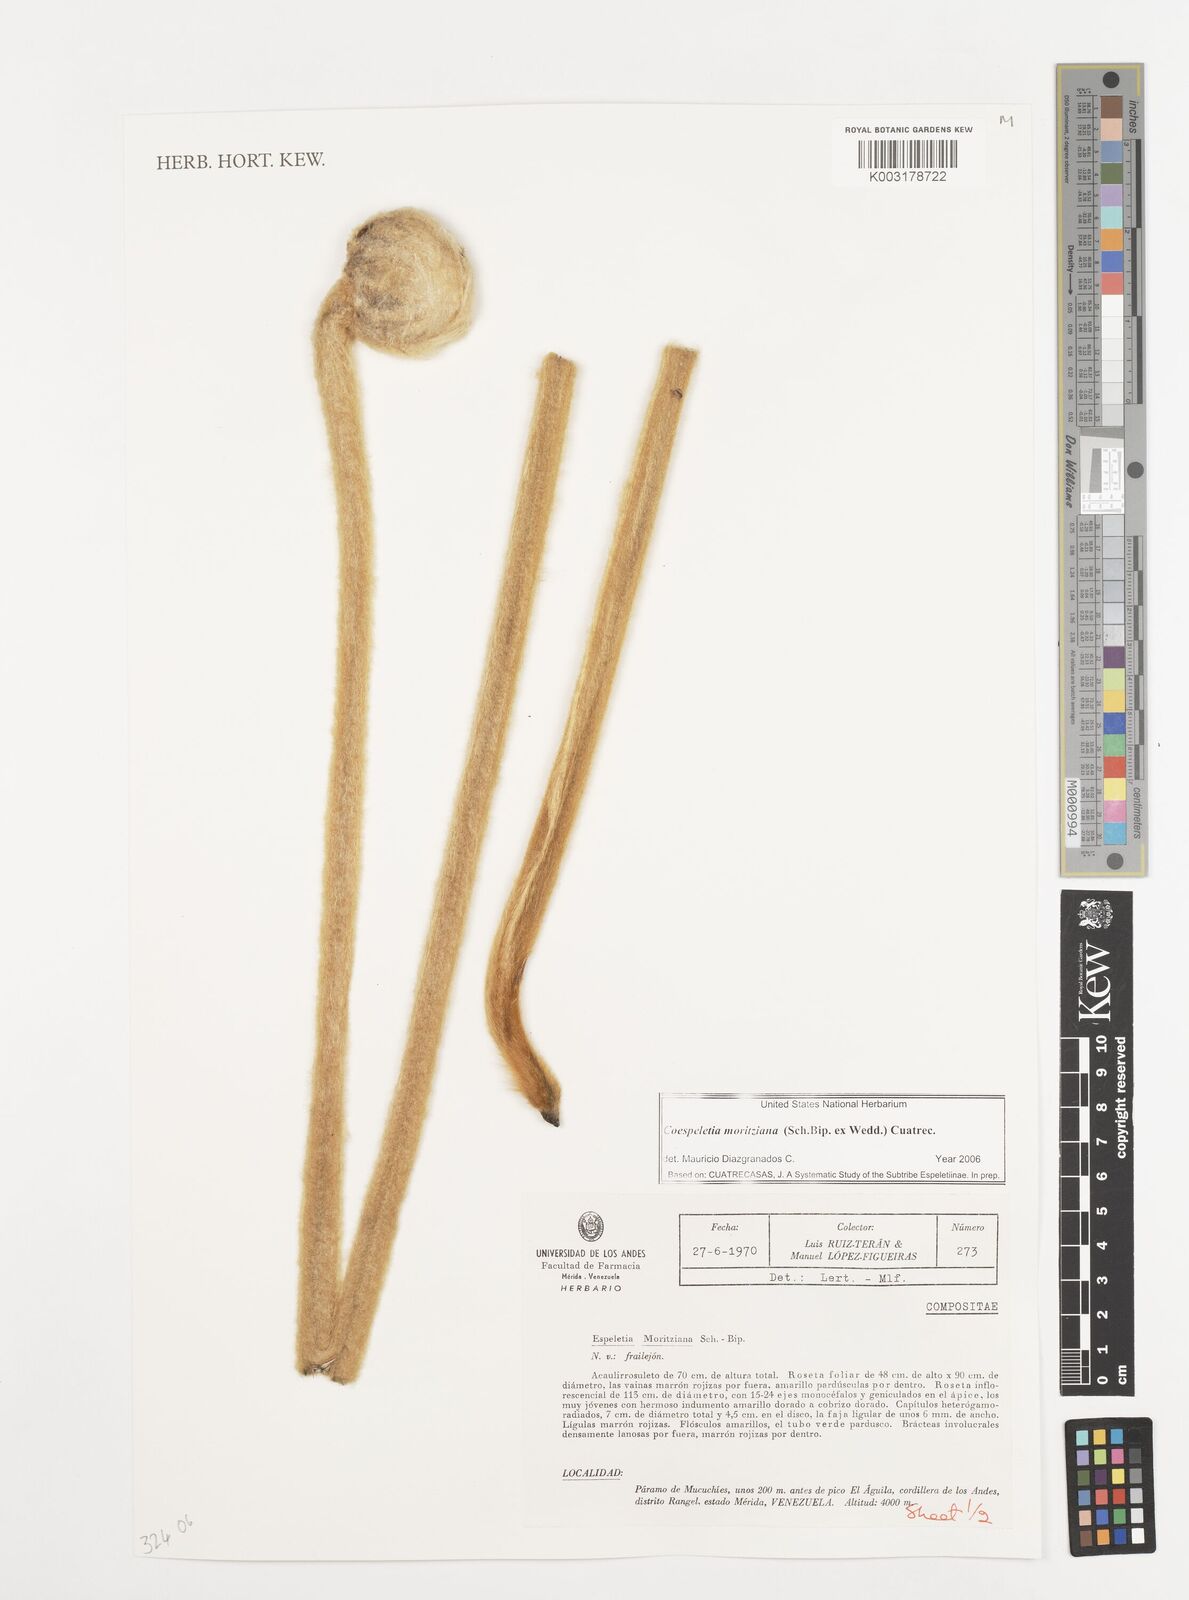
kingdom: Plantae
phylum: Tracheophyta
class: Magnoliopsida
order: Asterales
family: Asteraceae
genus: Espeletia
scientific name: Espeletia moritziana
